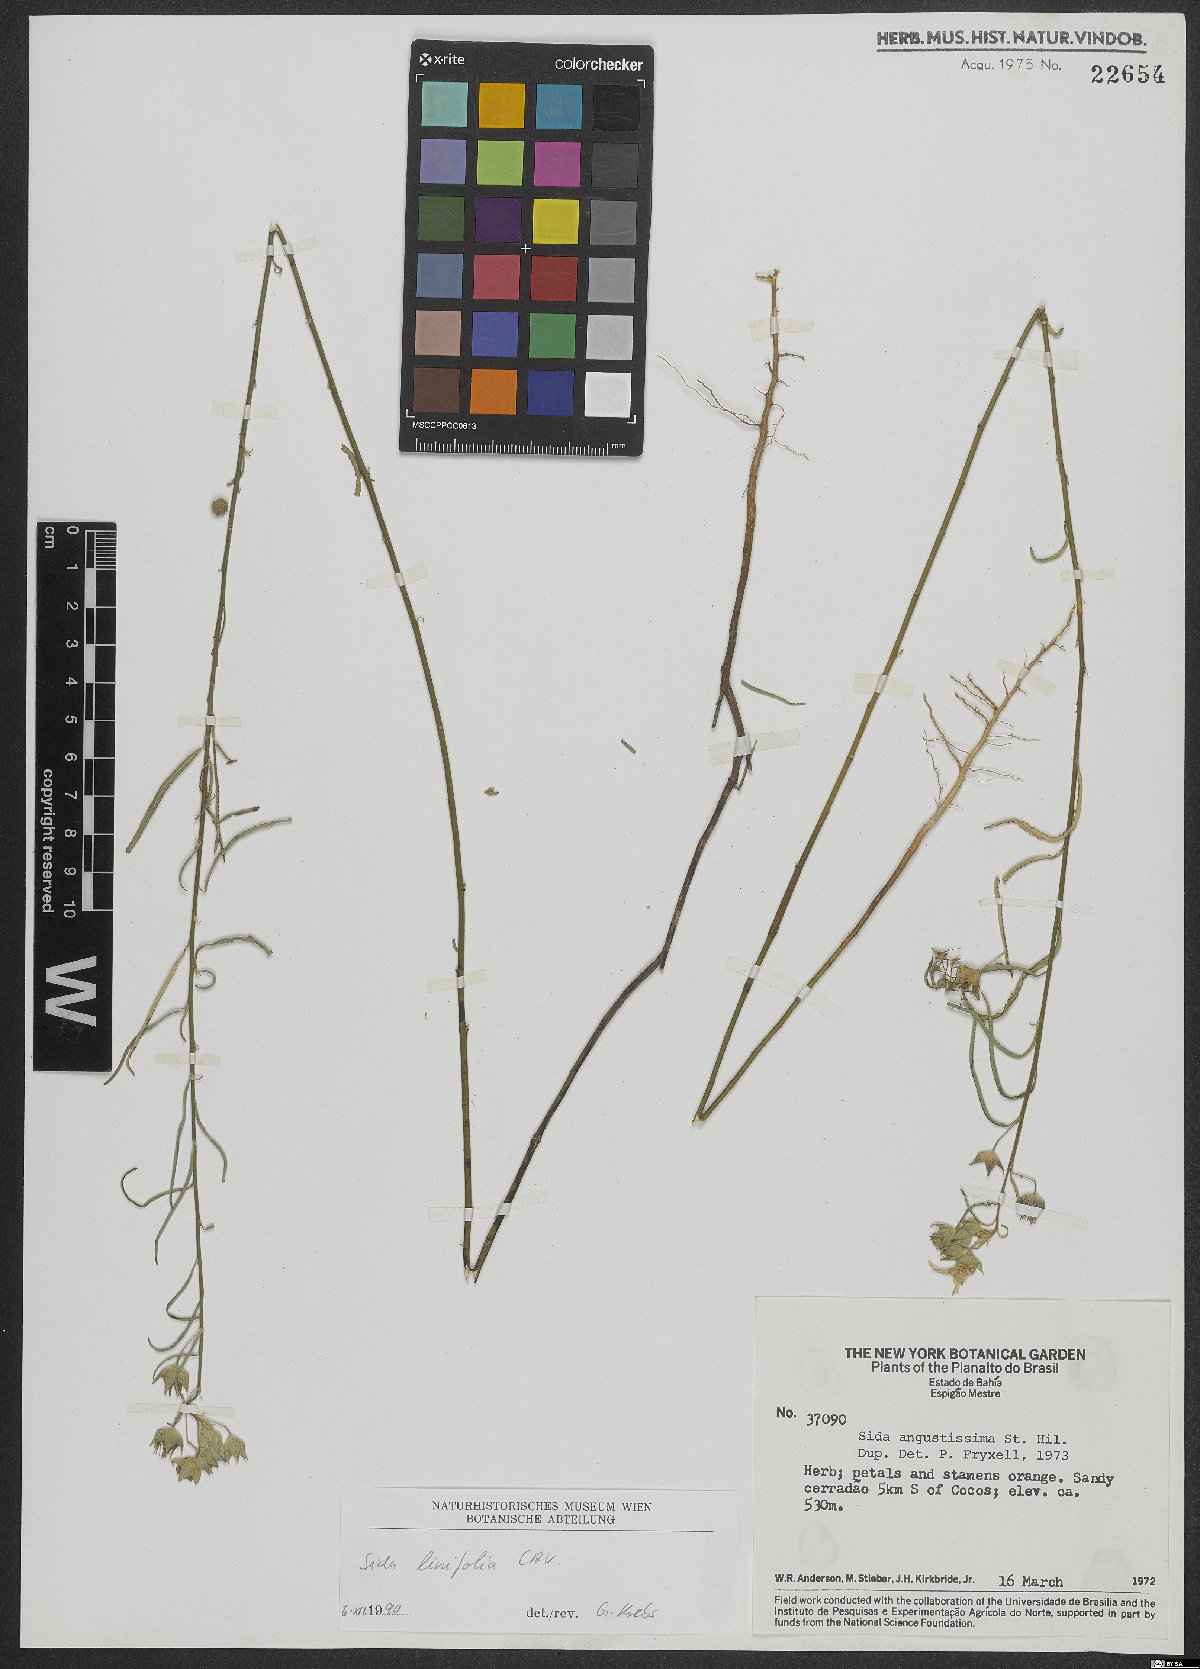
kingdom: Plantae
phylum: Tracheophyta
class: Magnoliopsida
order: Malvales
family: Malvaceae
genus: Sida
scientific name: Sida linifolia
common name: Flaxleaf fanpetals
